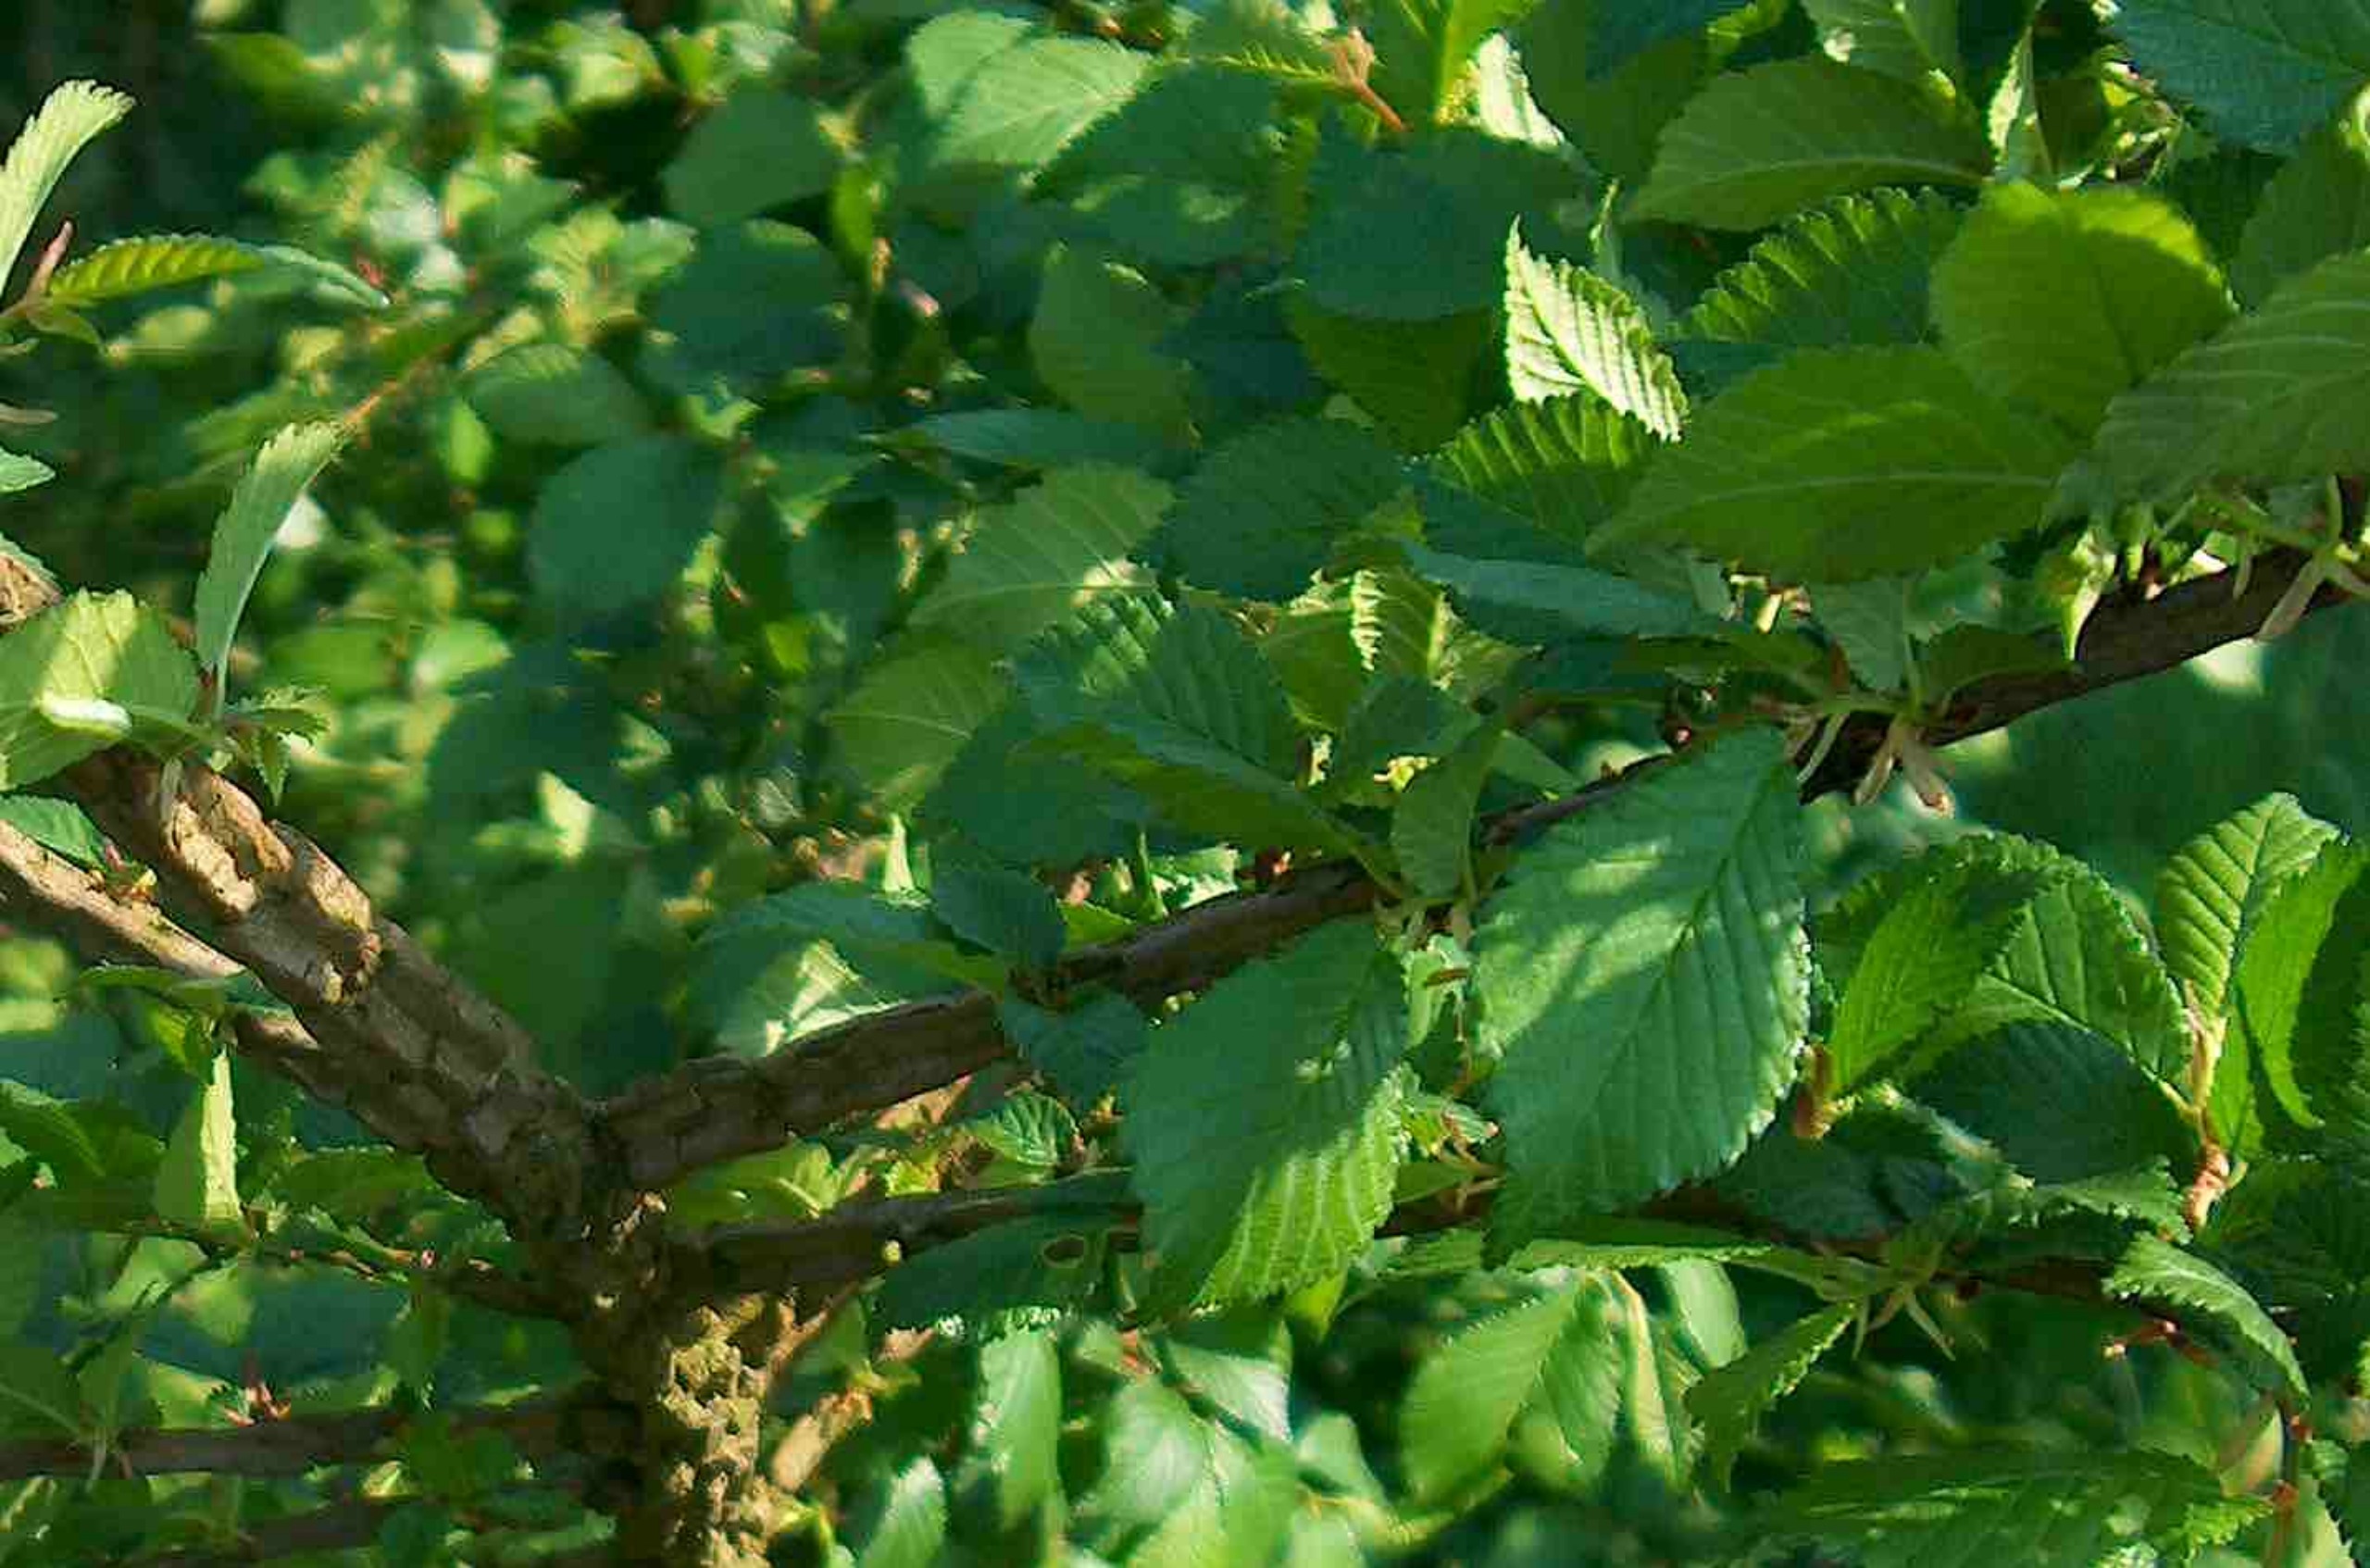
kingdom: Plantae
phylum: Tracheophyta
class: Magnoliopsida
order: Rosales
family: Ulmaceae
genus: Ulmus
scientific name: Ulmus minor
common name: Småbladet elm
